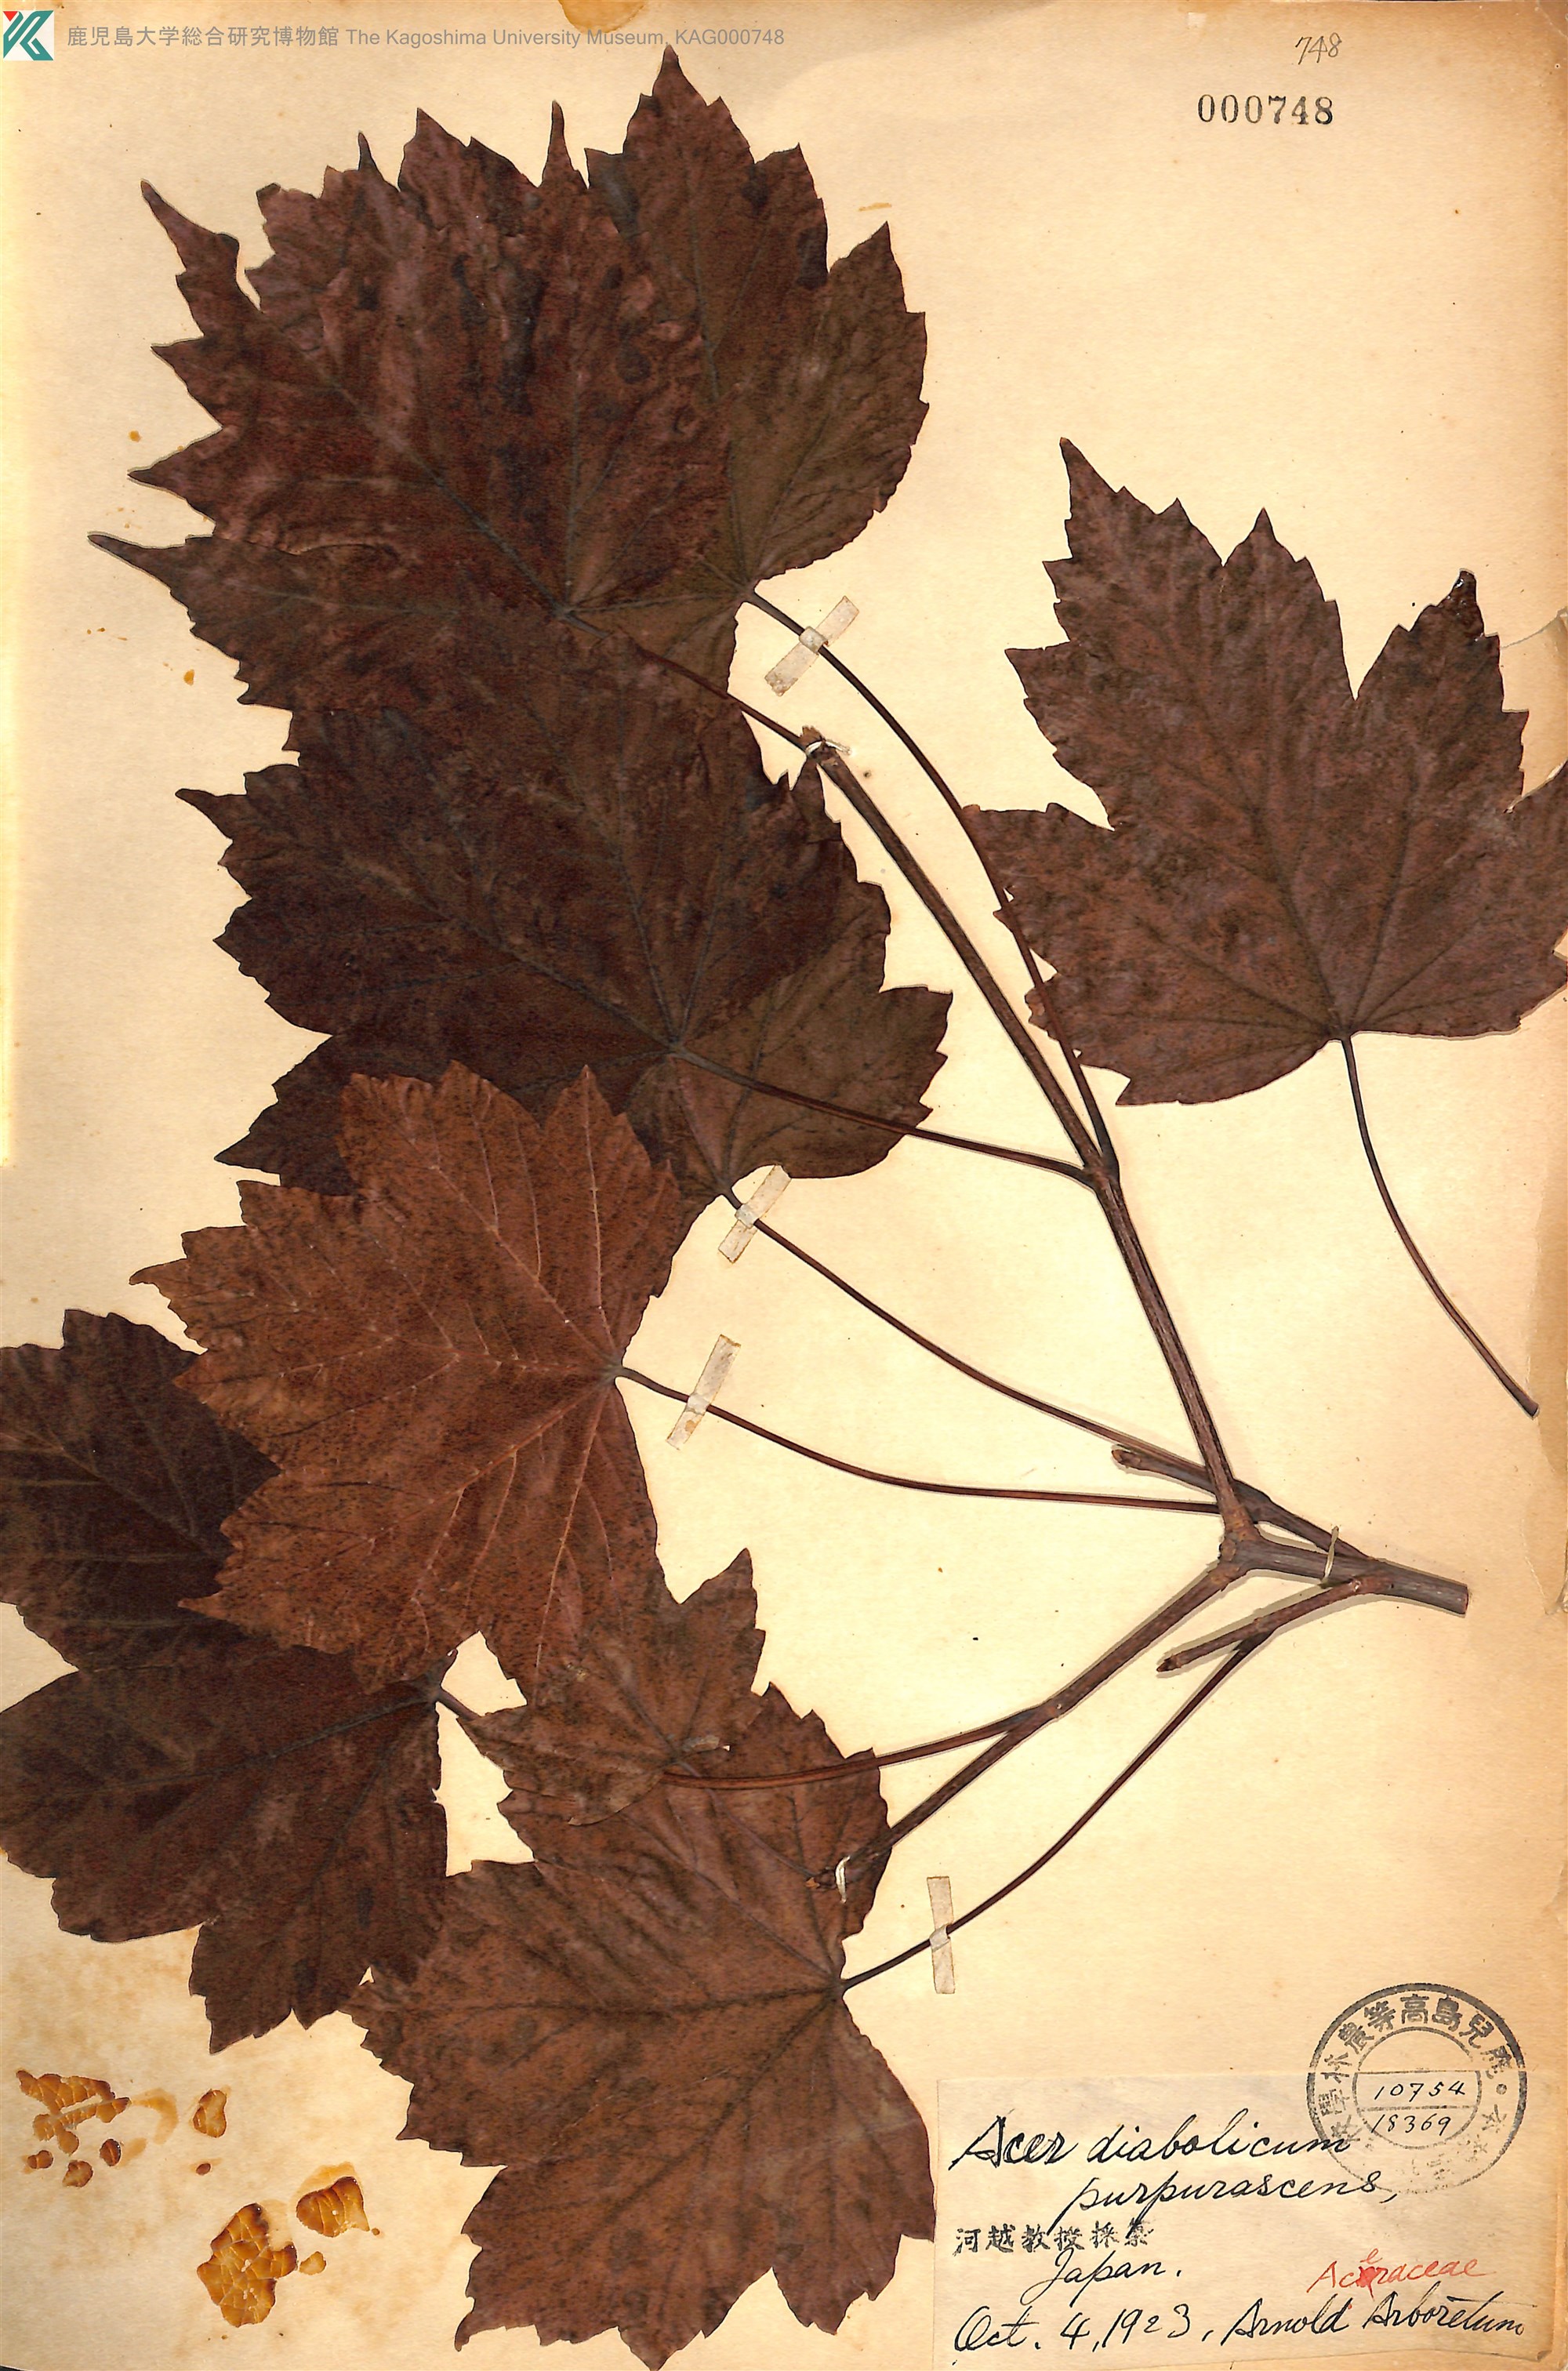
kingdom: Plantae
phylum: Tracheophyta
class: Magnoliopsida
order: Sapindales
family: Sapindaceae
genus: Acer
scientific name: Acer diabolicum
